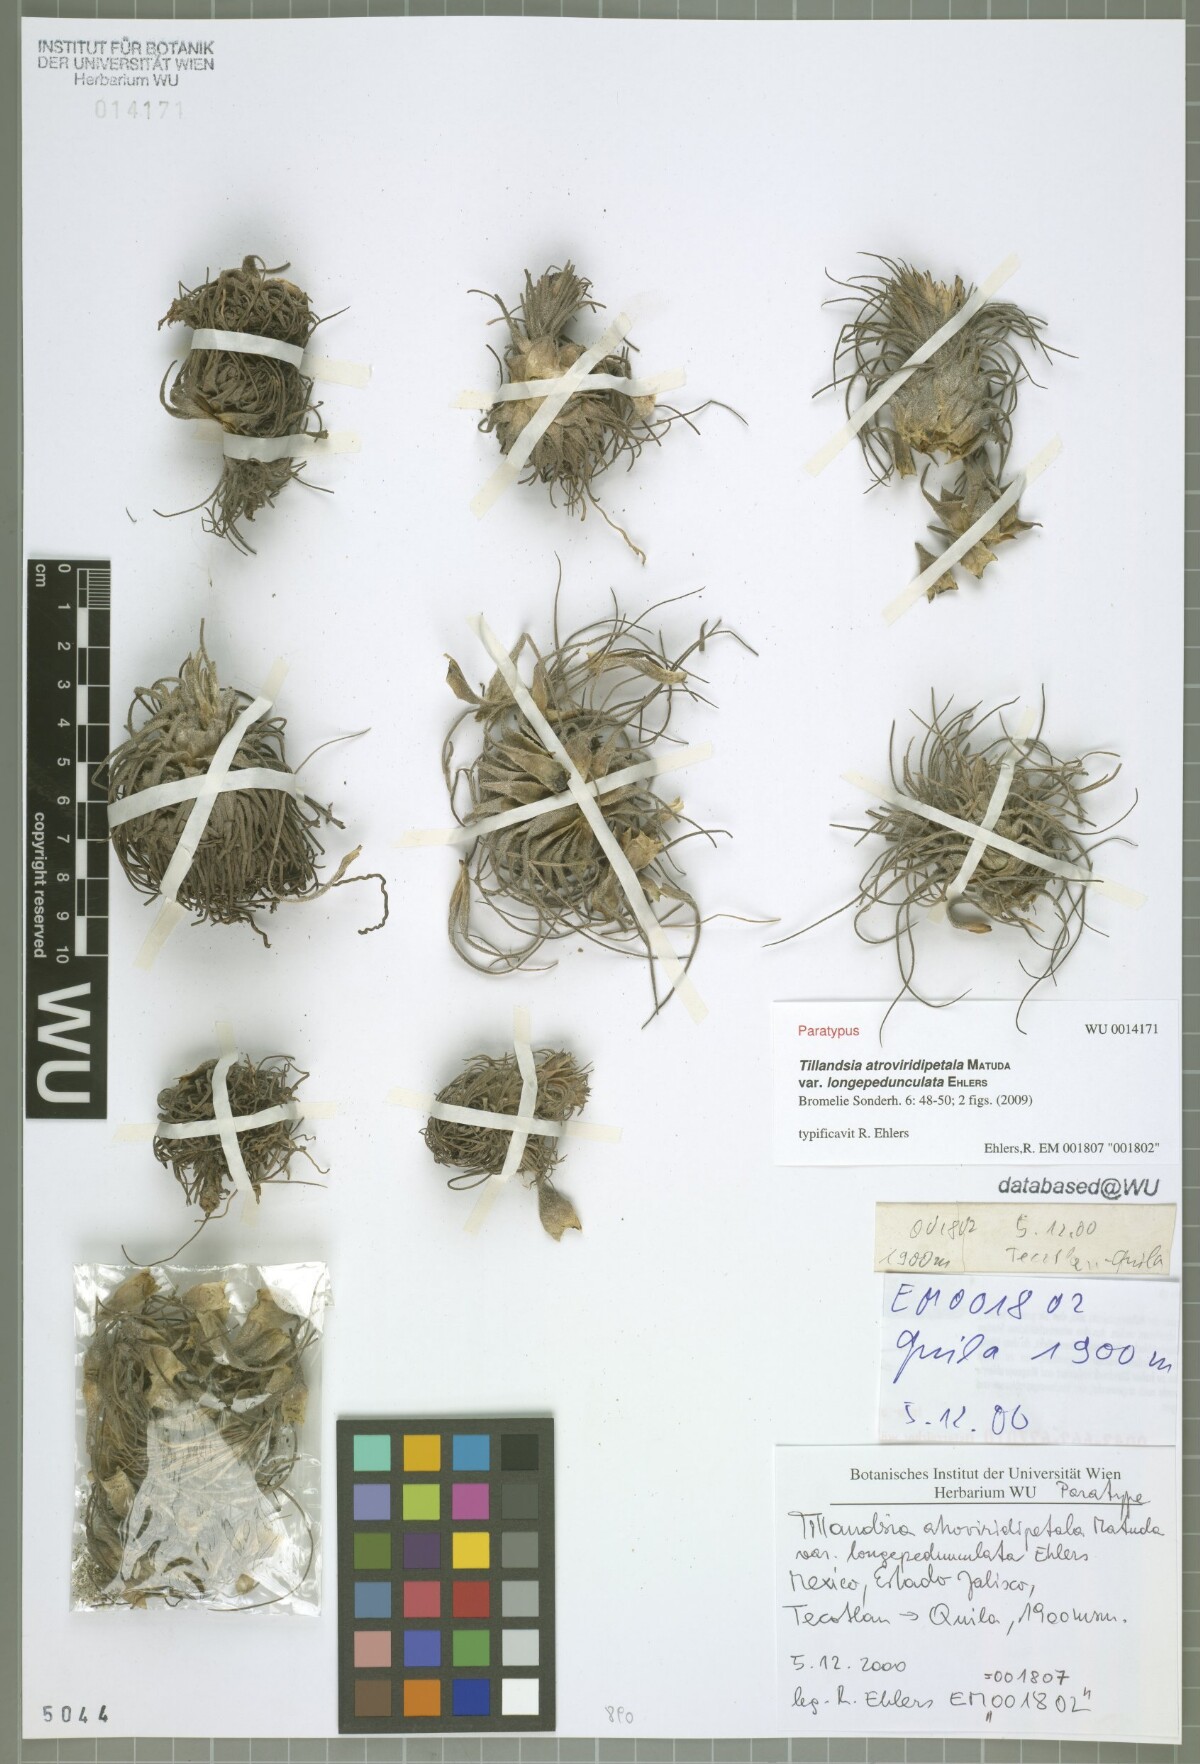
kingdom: Plantae
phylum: Tracheophyta
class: Liliopsida
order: Poales
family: Bromeliaceae
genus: Tillandsia
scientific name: Tillandsia atroviridipetala
